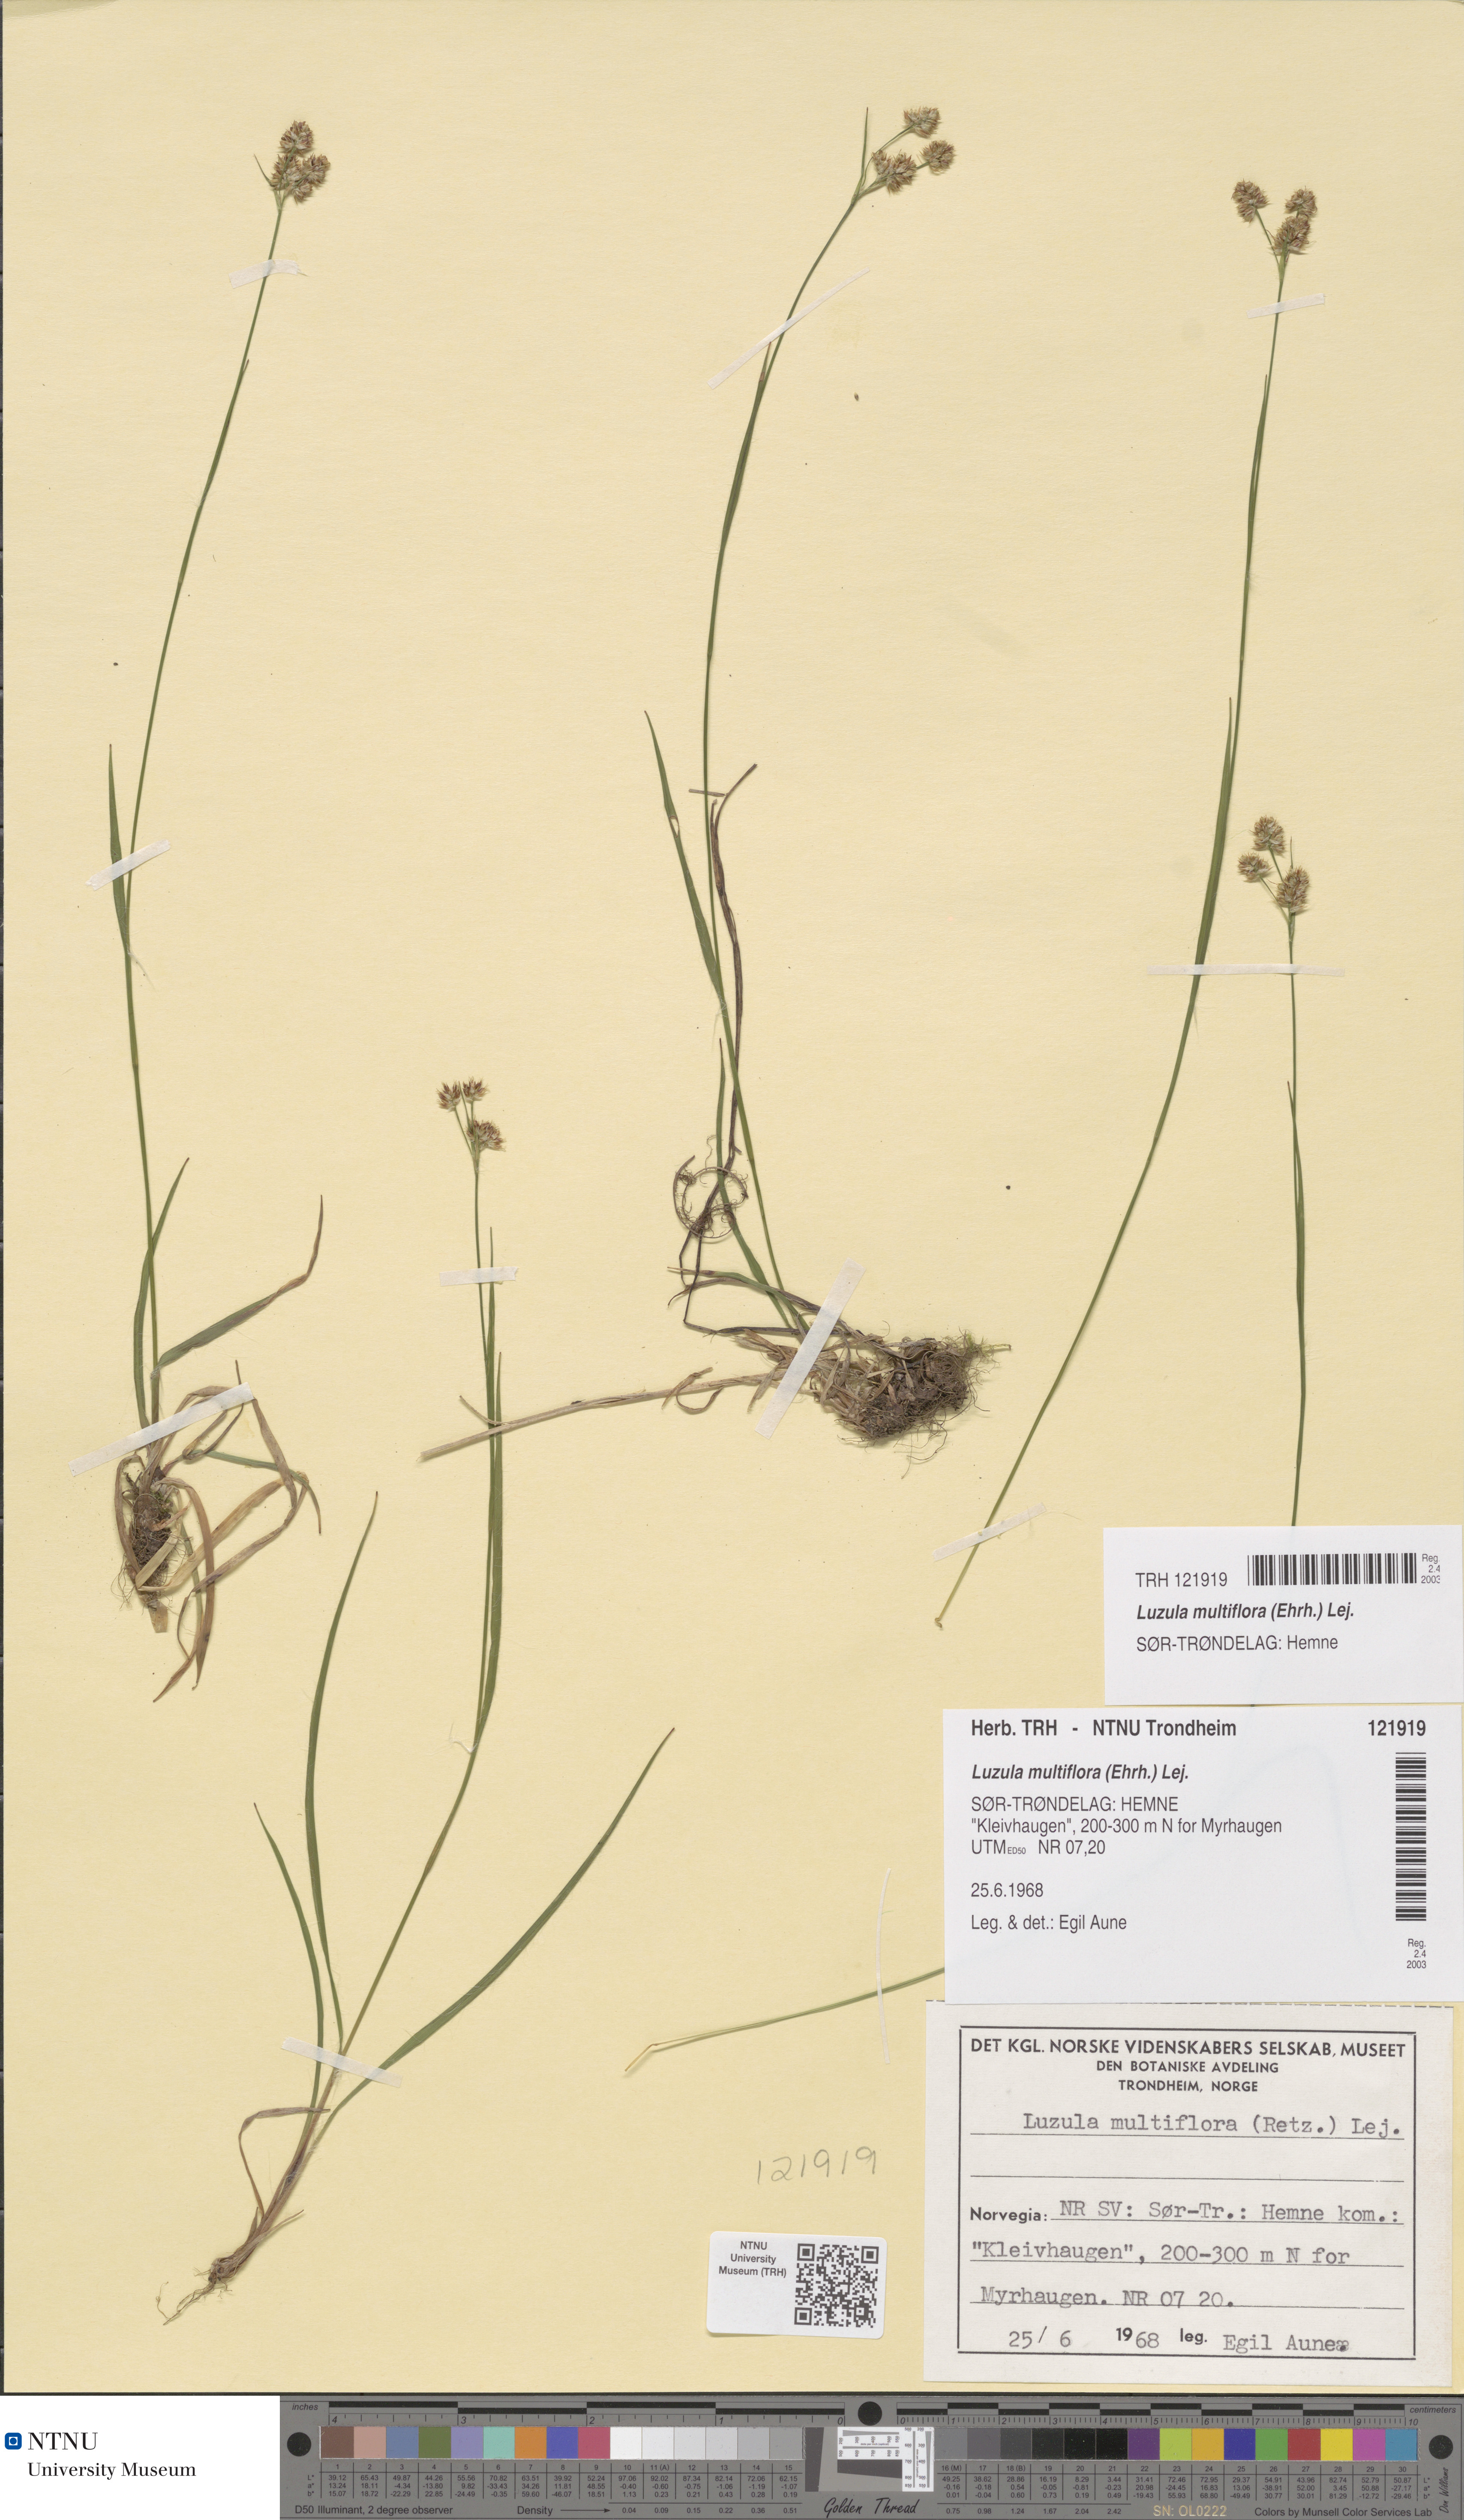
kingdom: Plantae
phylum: Tracheophyta
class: Liliopsida
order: Poales
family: Juncaceae
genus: Luzula
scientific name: Luzula multiflora
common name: Heath wood-rush
